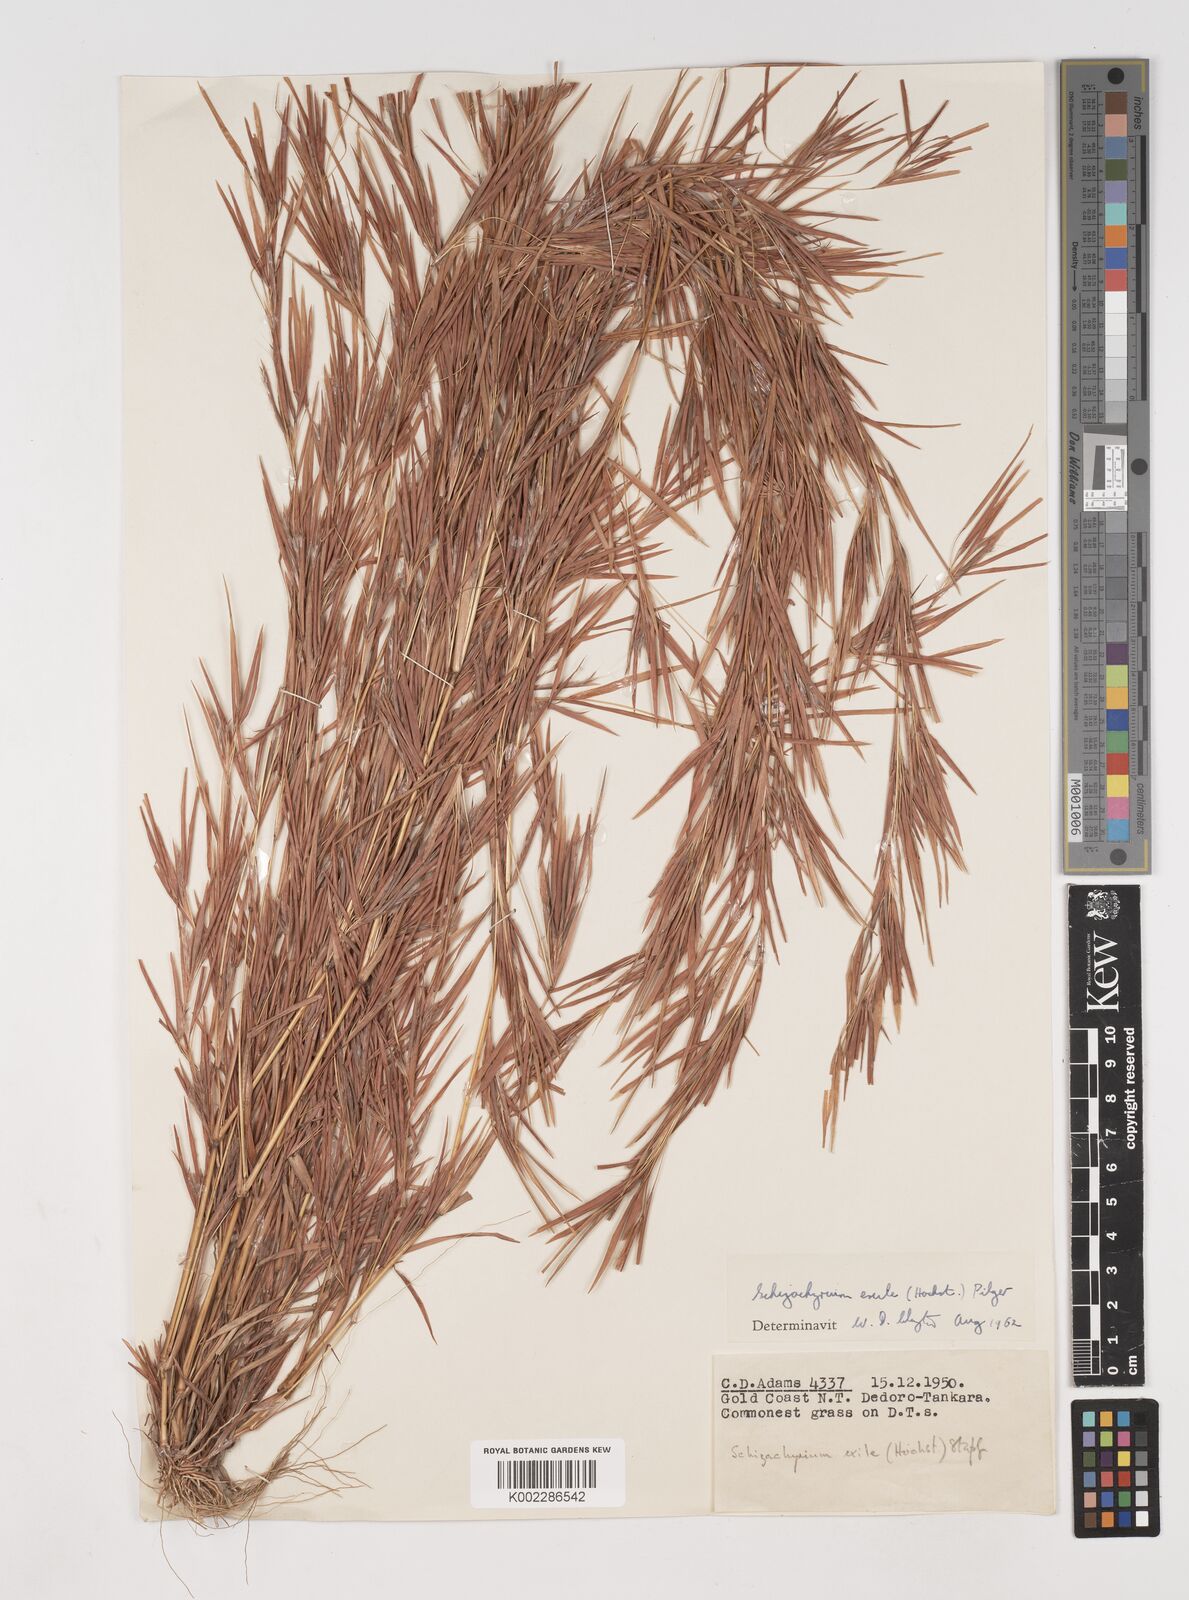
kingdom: Plantae
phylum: Tracheophyta
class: Liliopsida
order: Poales
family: Poaceae
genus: Schizachyrium
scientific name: Schizachyrium exile
